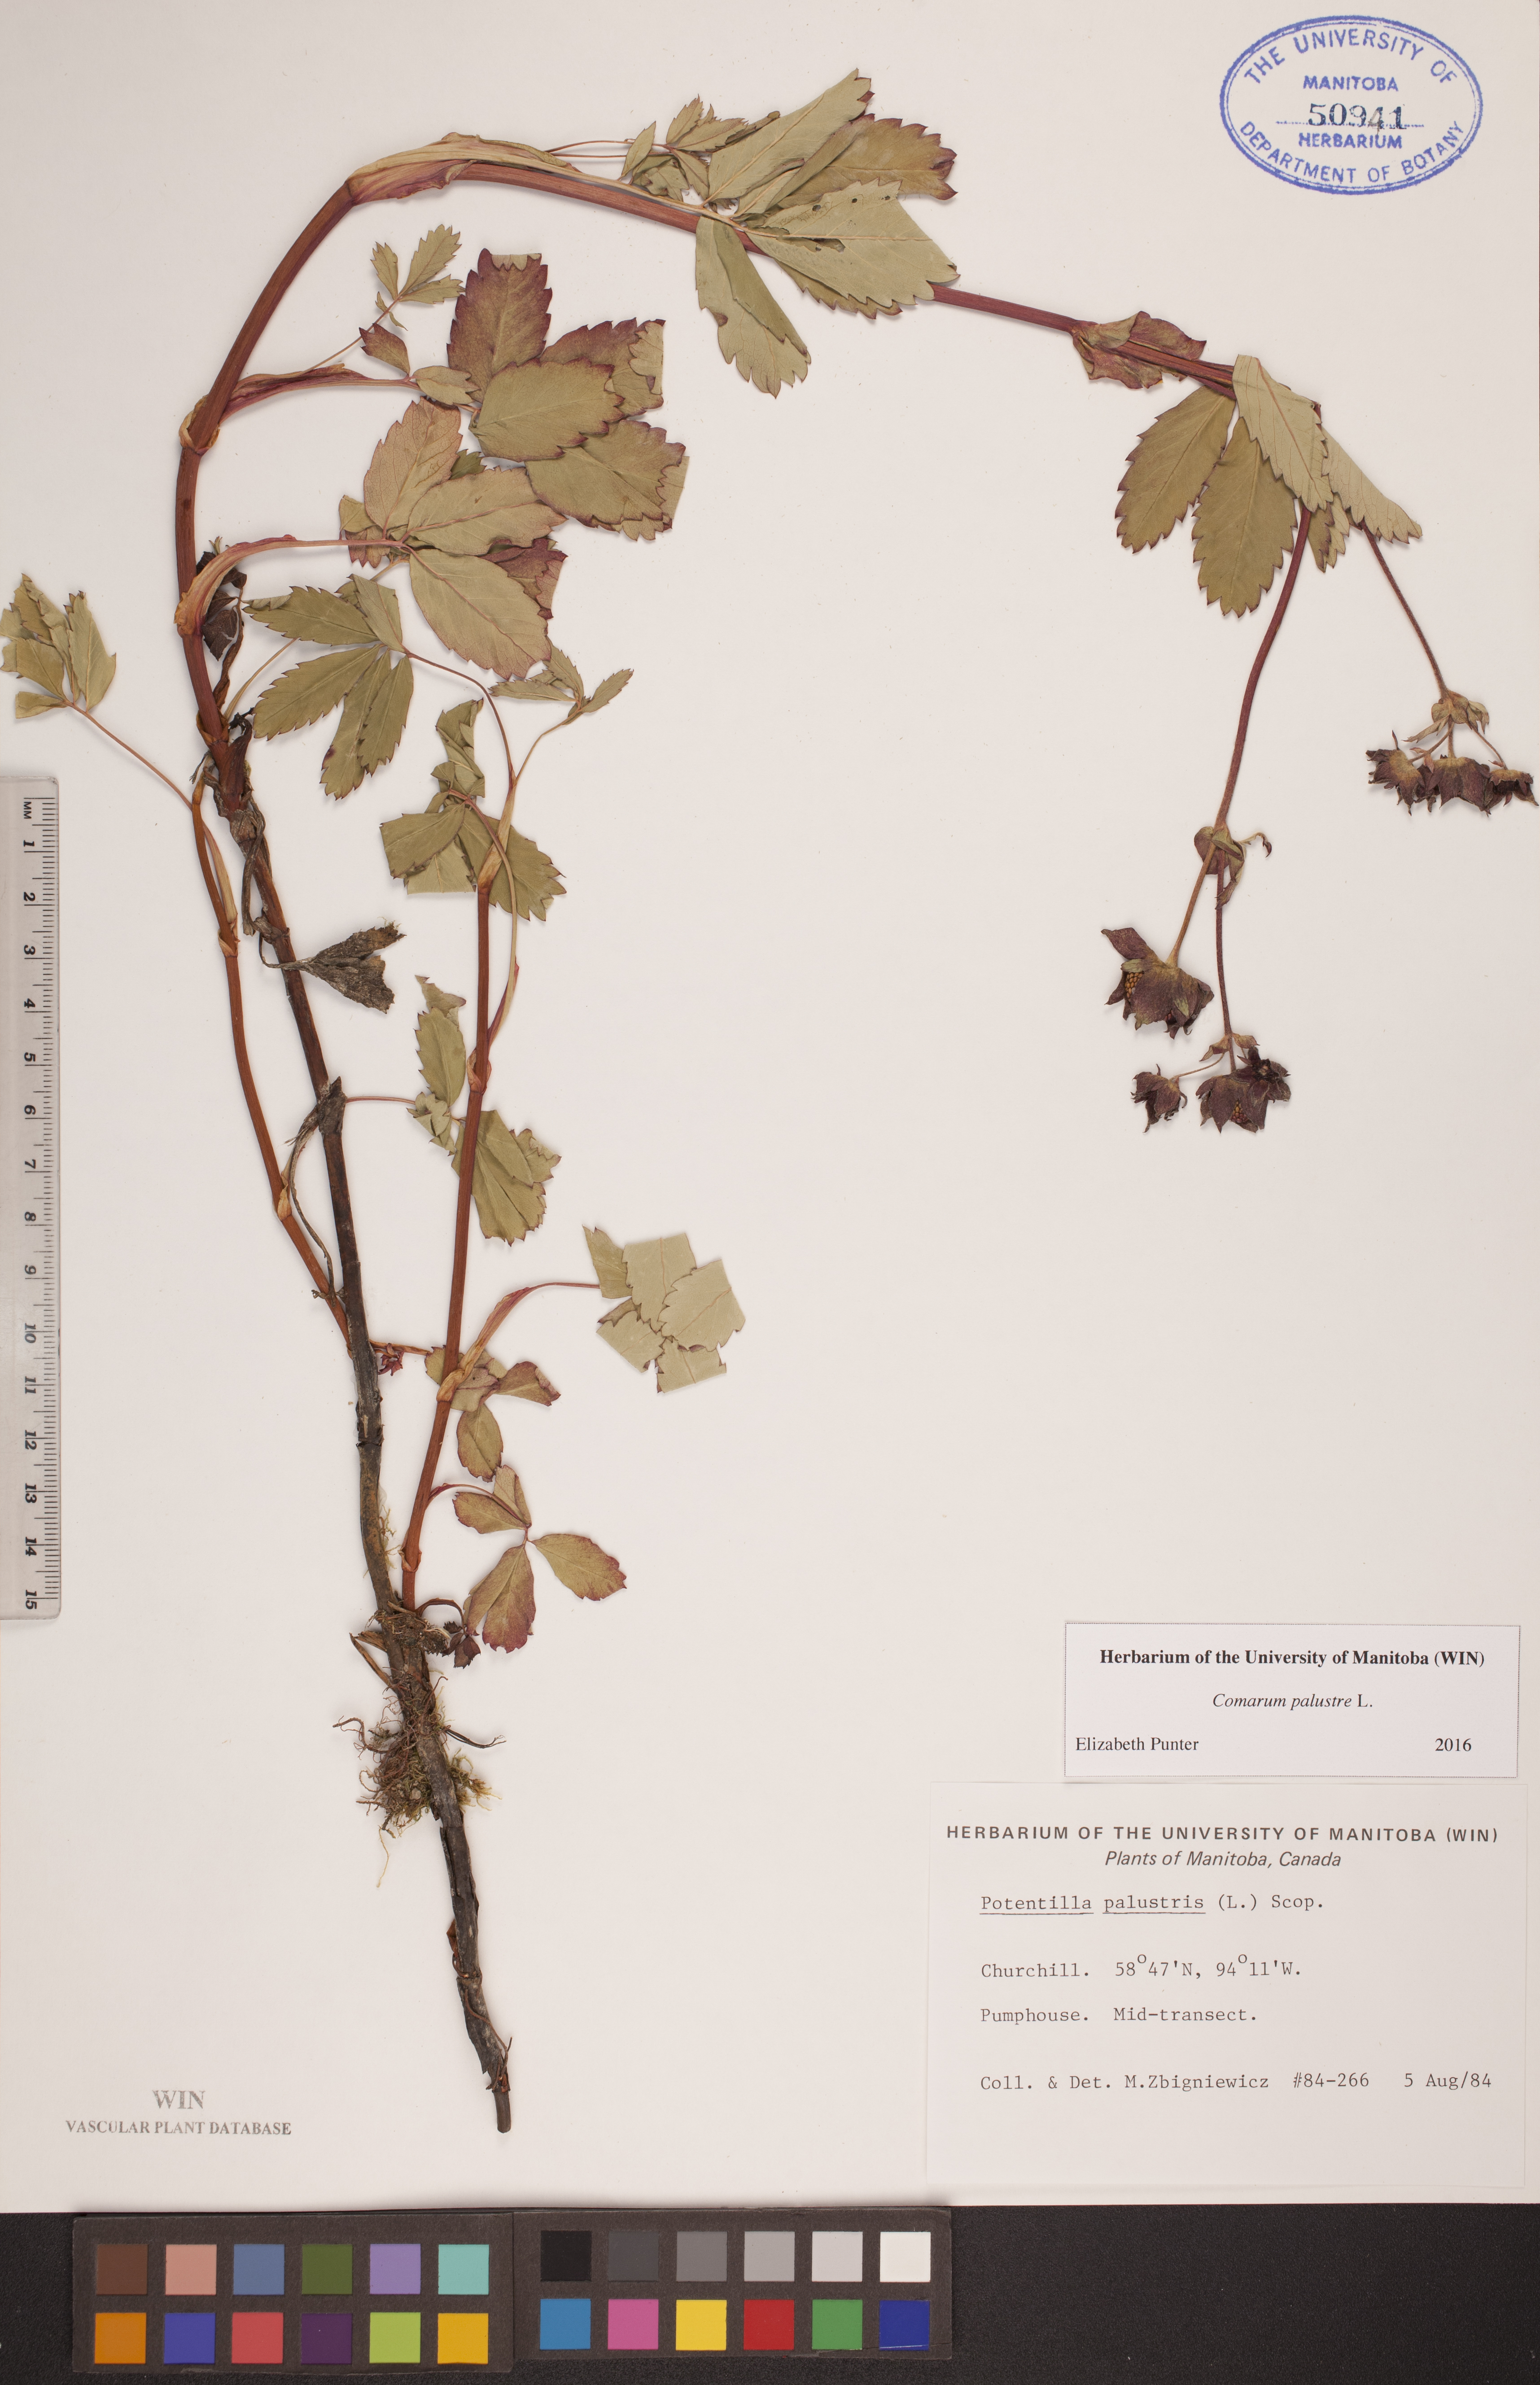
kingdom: Plantae
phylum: Tracheophyta
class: Magnoliopsida
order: Rosales
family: Rosaceae
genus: Comarum
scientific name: Comarum palustre
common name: Marsh cinquefoil
